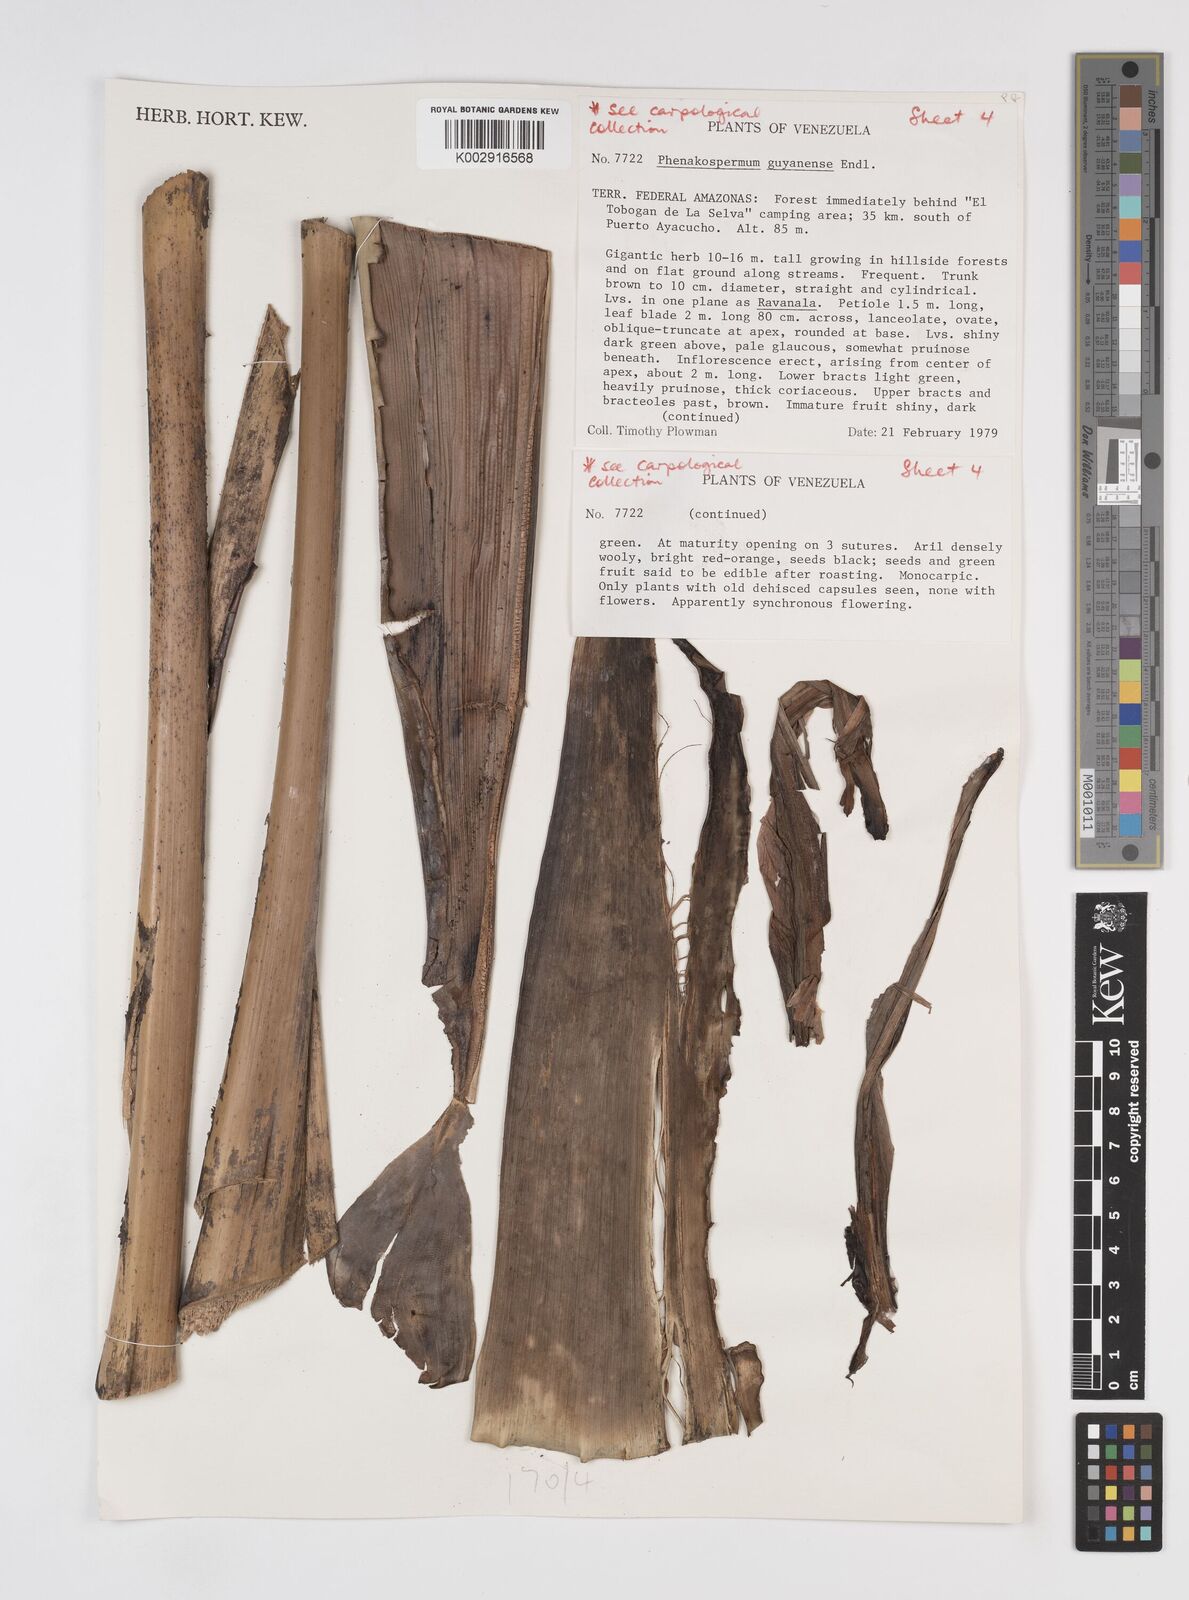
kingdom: Plantae
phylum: Tracheophyta
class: Liliopsida
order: Zingiberales
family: Strelitziaceae
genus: Phenakospermum
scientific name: Phenakospermum guyannense
